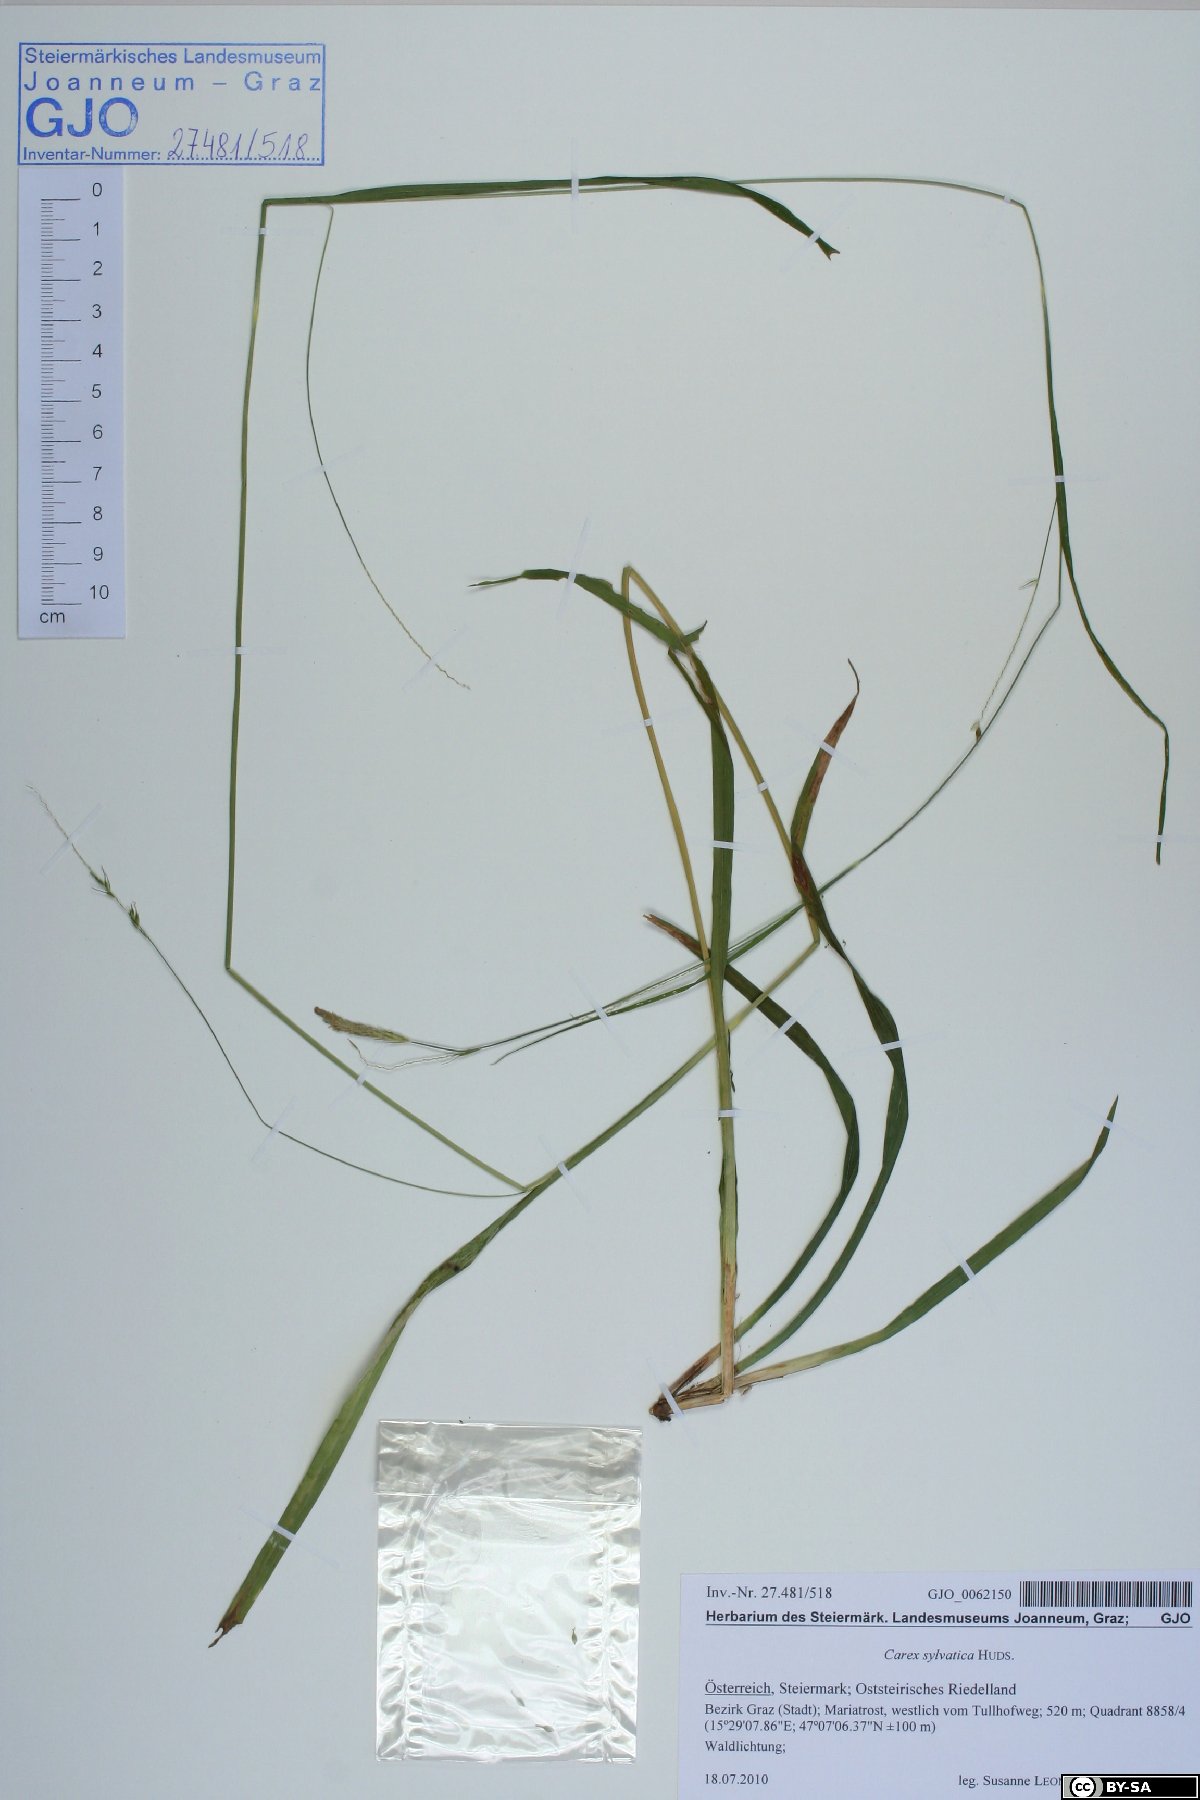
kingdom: Plantae
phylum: Tracheophyta
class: Liliopsida
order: Poales
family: Cyperaceae
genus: Carex
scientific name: Carex sylvatica
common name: Wood-sedge
